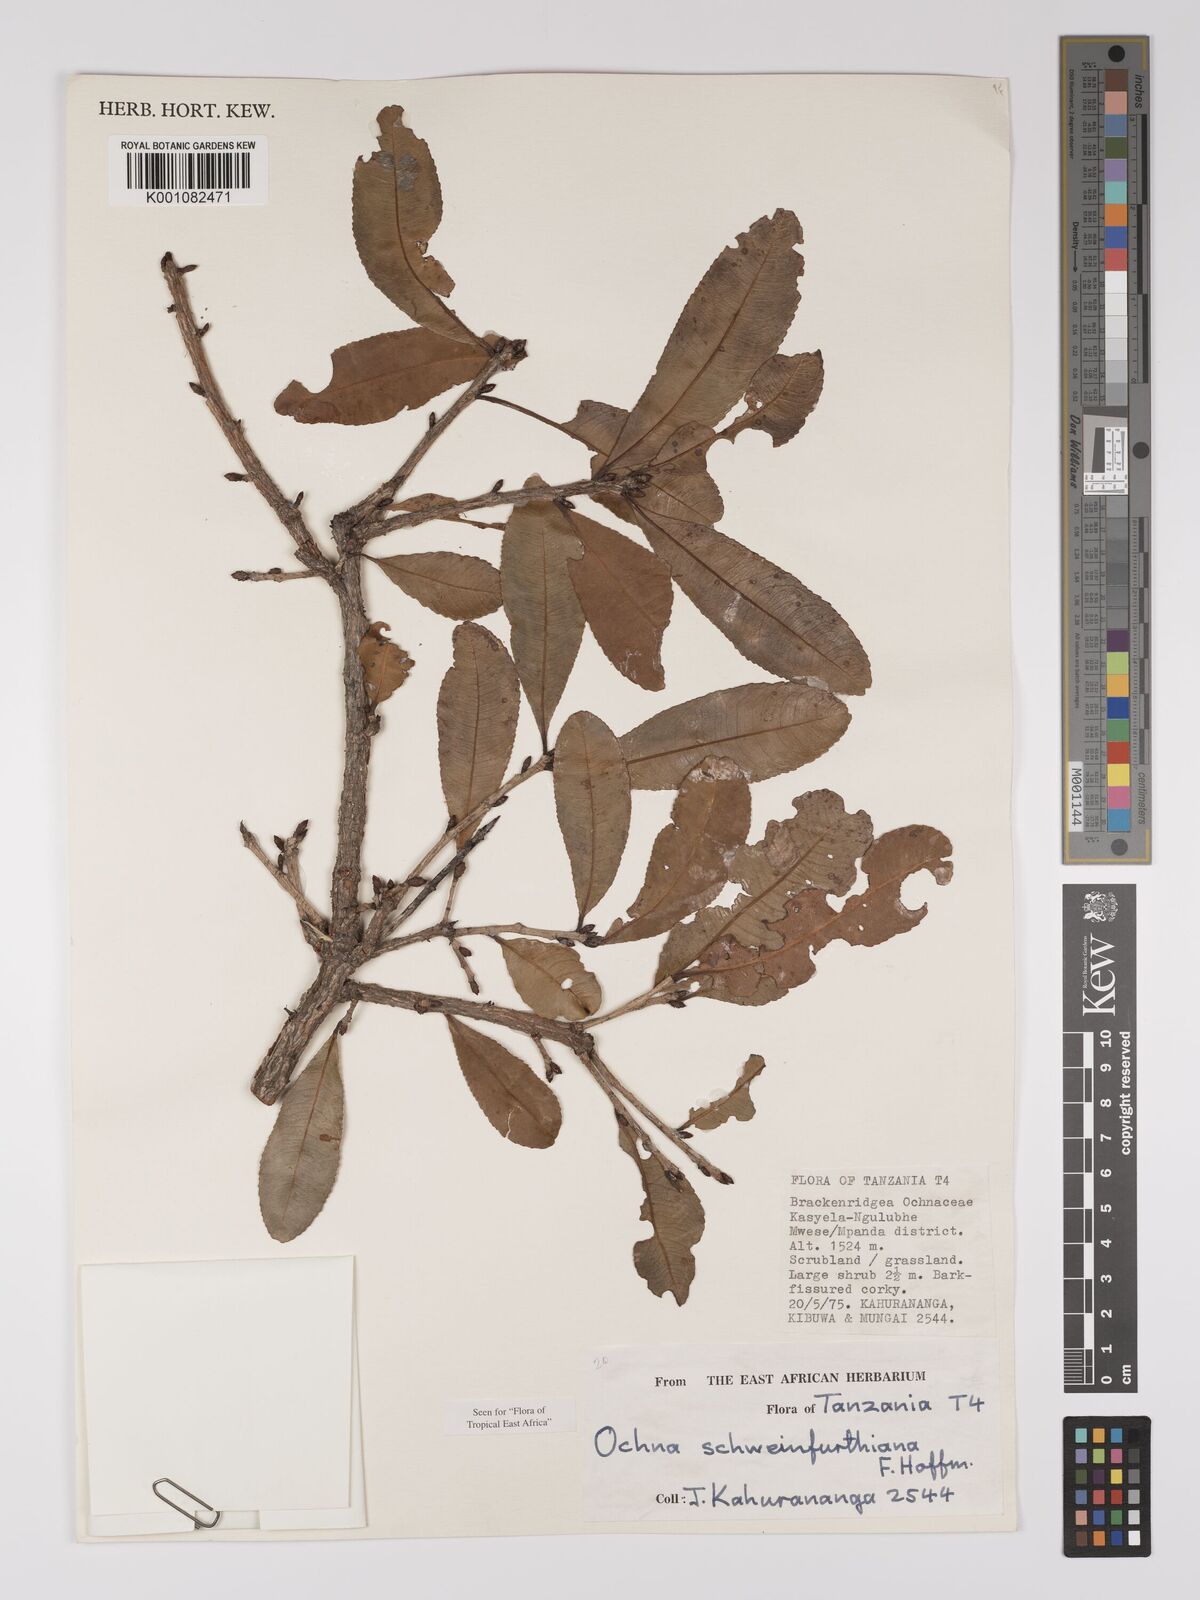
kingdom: Plantae
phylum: Tracheophyta
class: Magnoliopsida
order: Malpighiales
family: Ochnaceae
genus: Ochna
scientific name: Ochna schweinfurthiana
